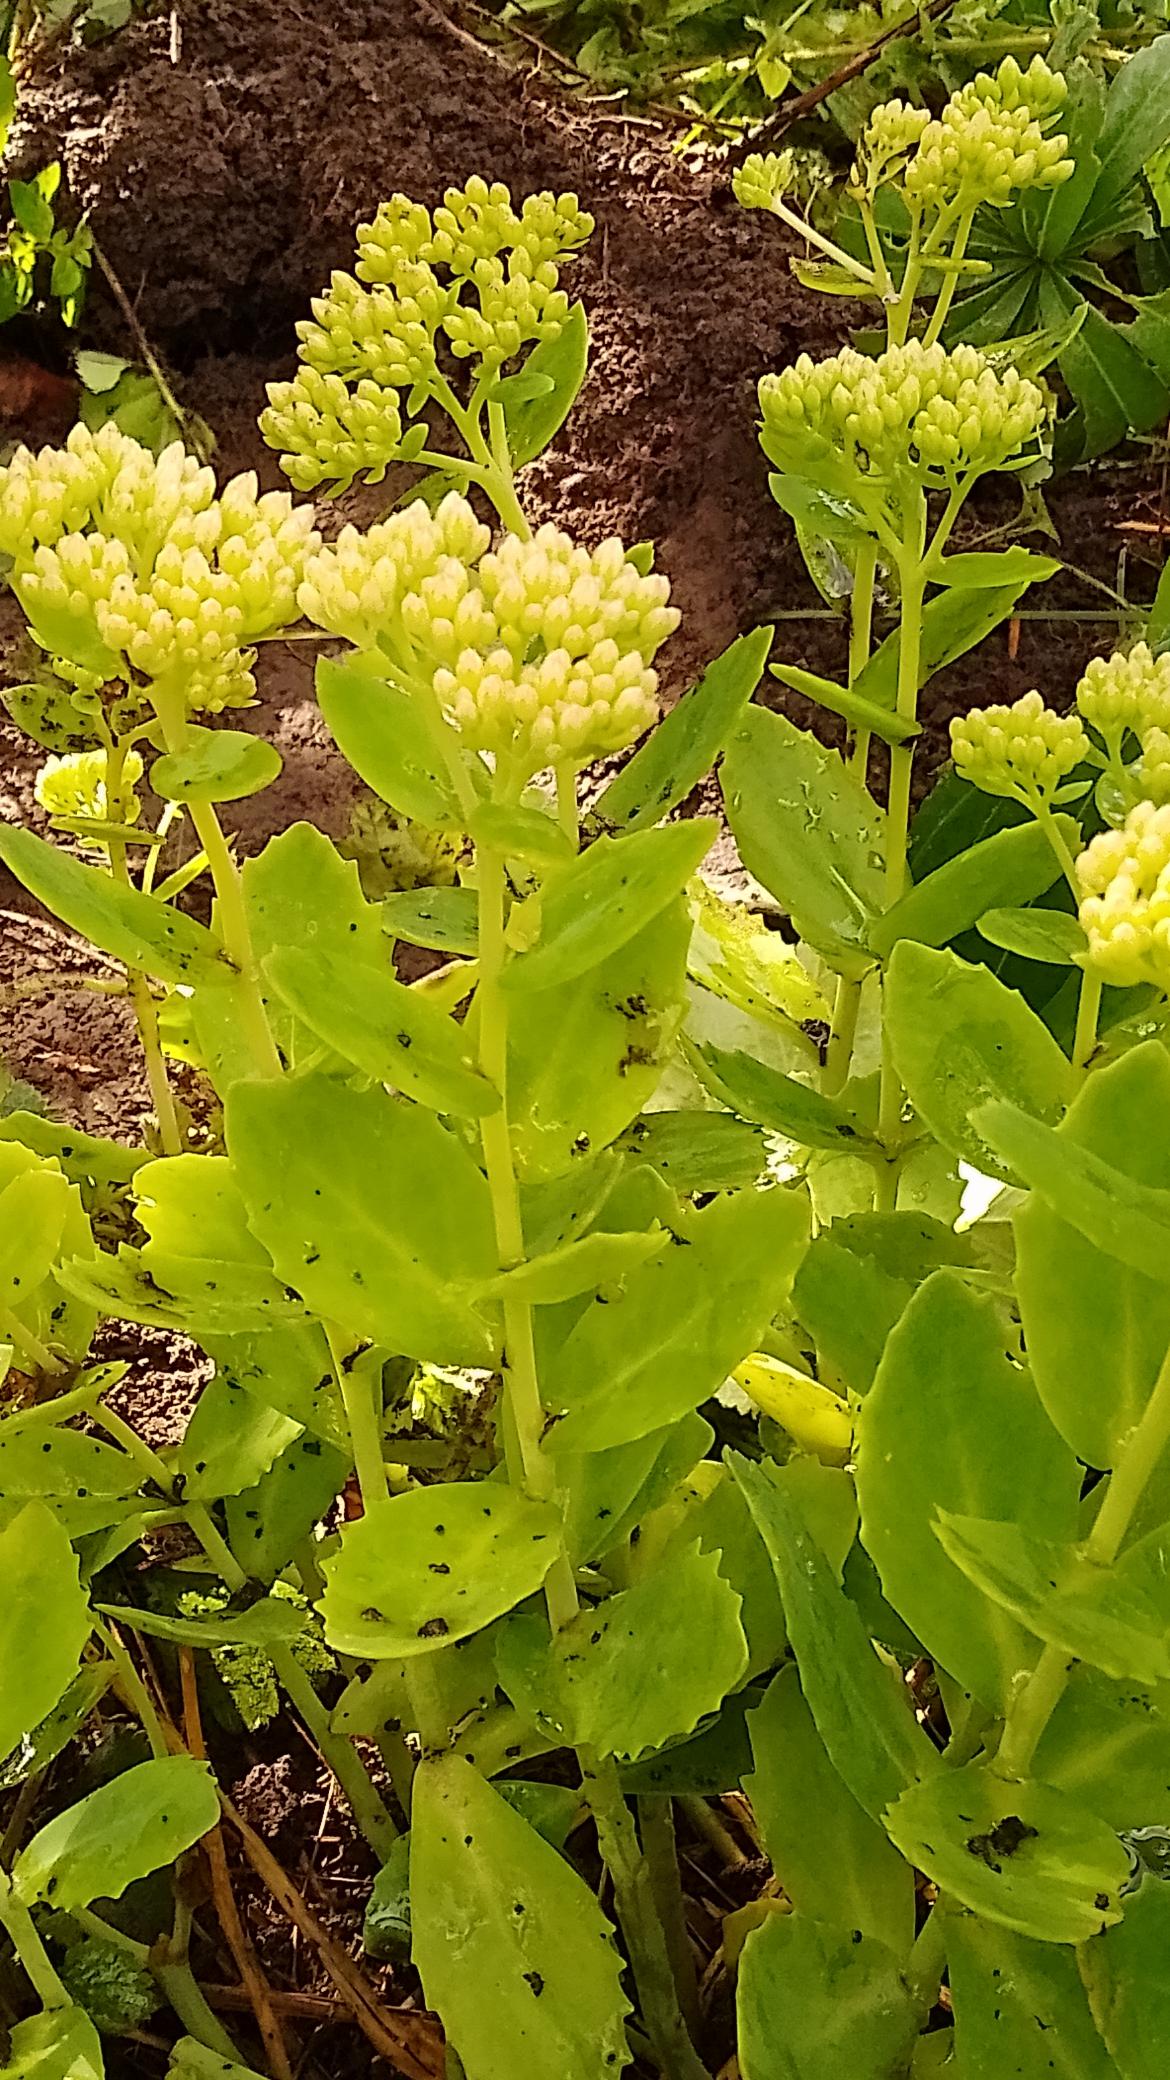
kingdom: Plantae
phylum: Tracheophyta
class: Magnoliopsida
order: Saxifragales
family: Crassulaceae
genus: Hylotelephium
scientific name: Hylotelephium telephium
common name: Rød sankthansurt
